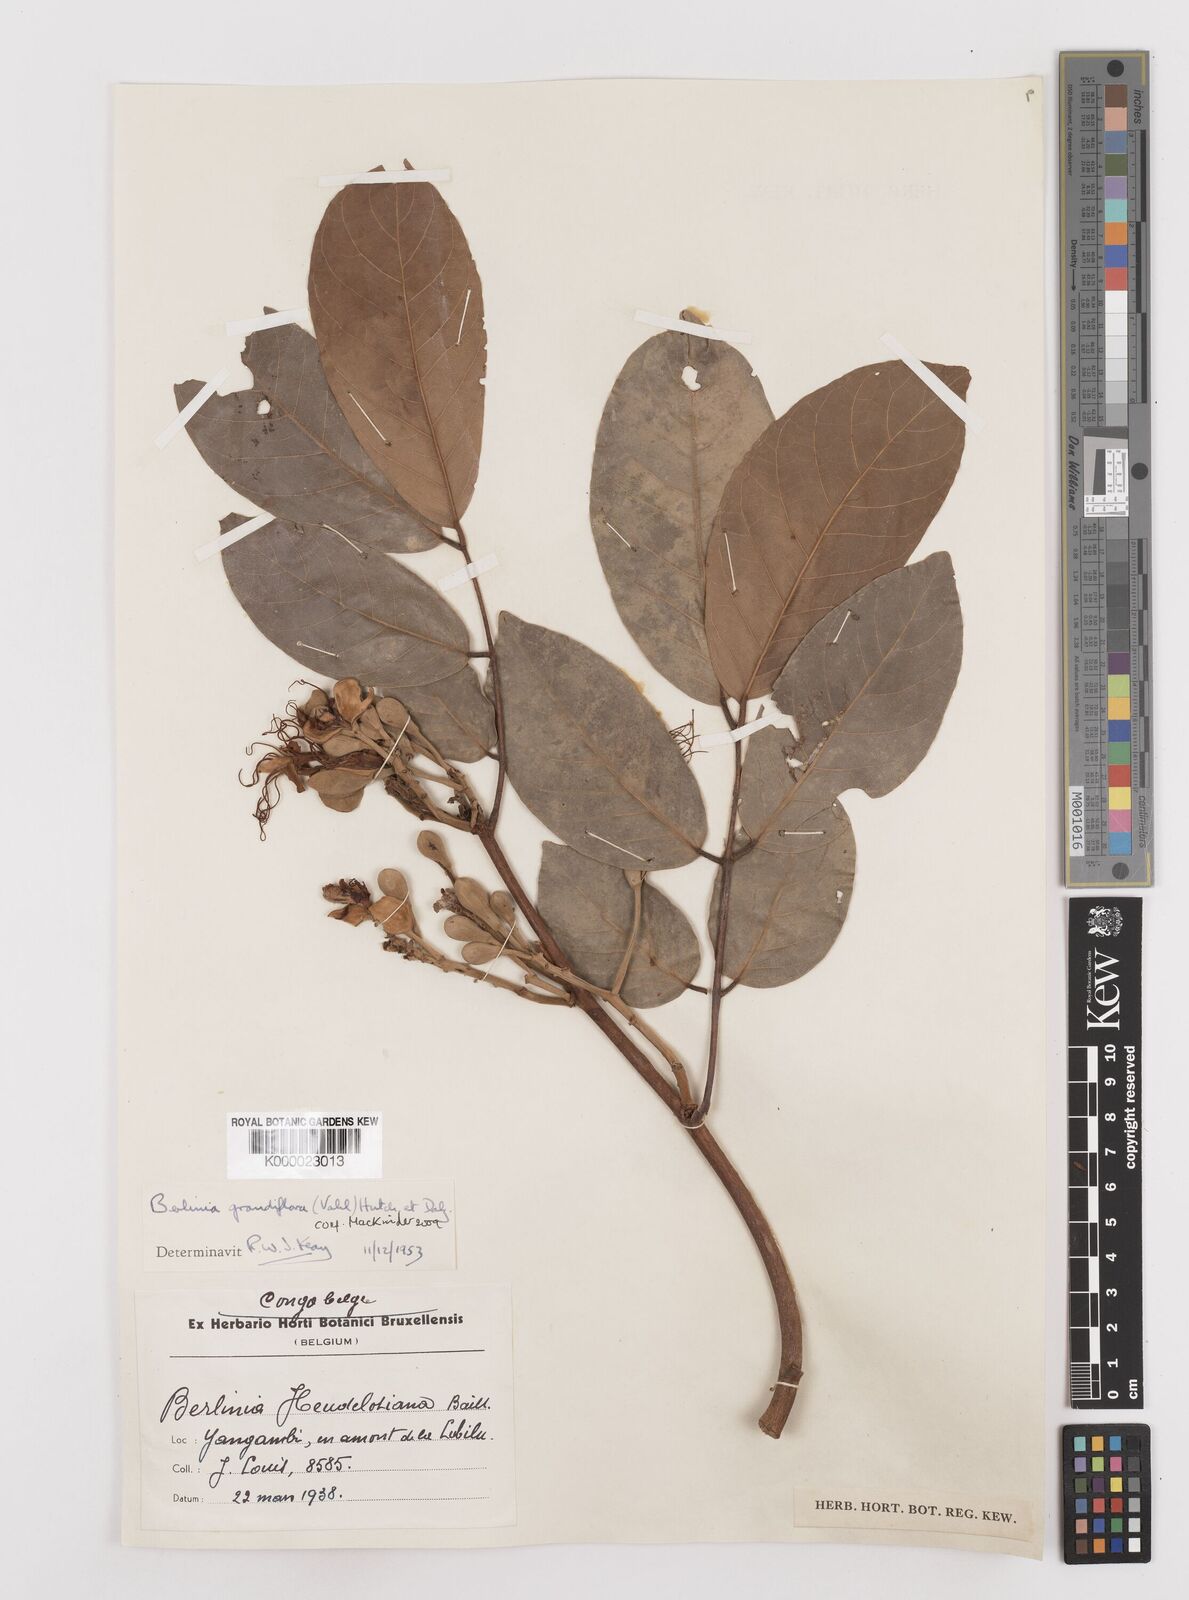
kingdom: Plantae
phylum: Tracheophyta
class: Magnoliopsida
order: Fabales
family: Fabaceae
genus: Berlinia
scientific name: Berlinia grandiflora
